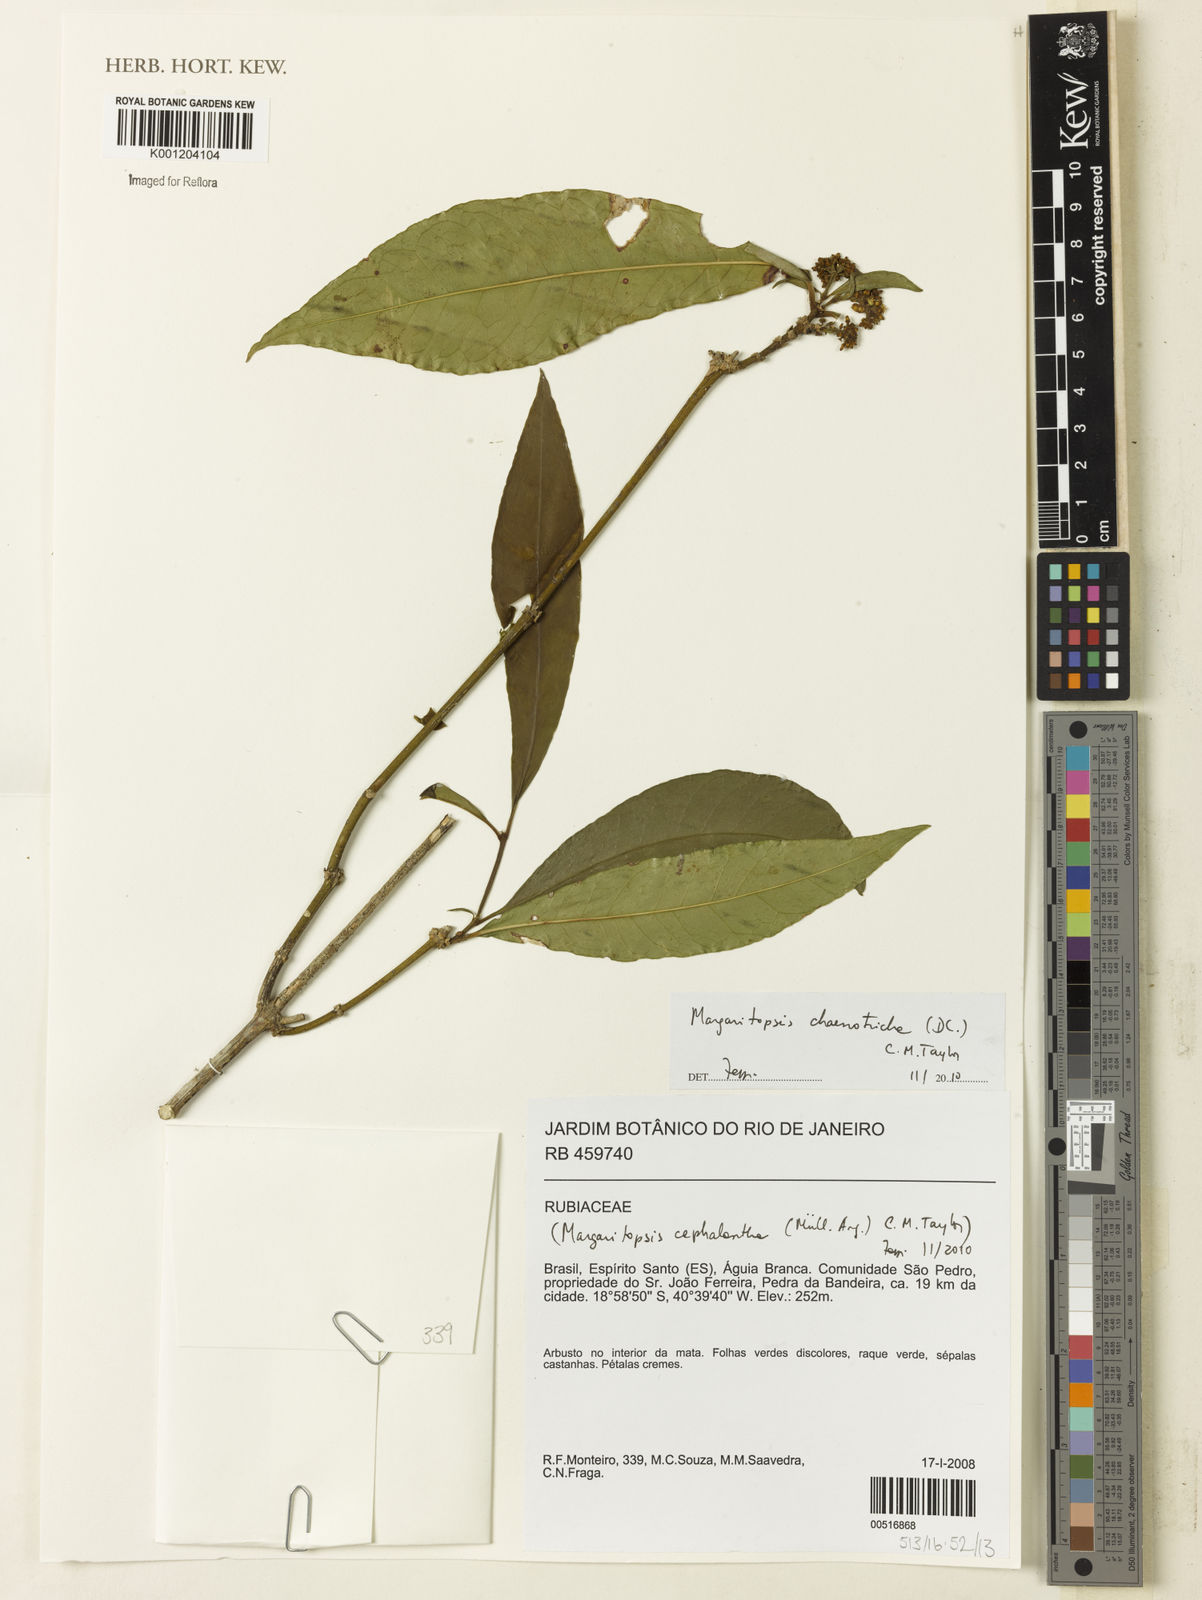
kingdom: Plantae
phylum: Tracheophyta
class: Magnoliopsida
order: Gentianales
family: Rubiaceae
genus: Eumachia
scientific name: Eumachia chaenotricha
